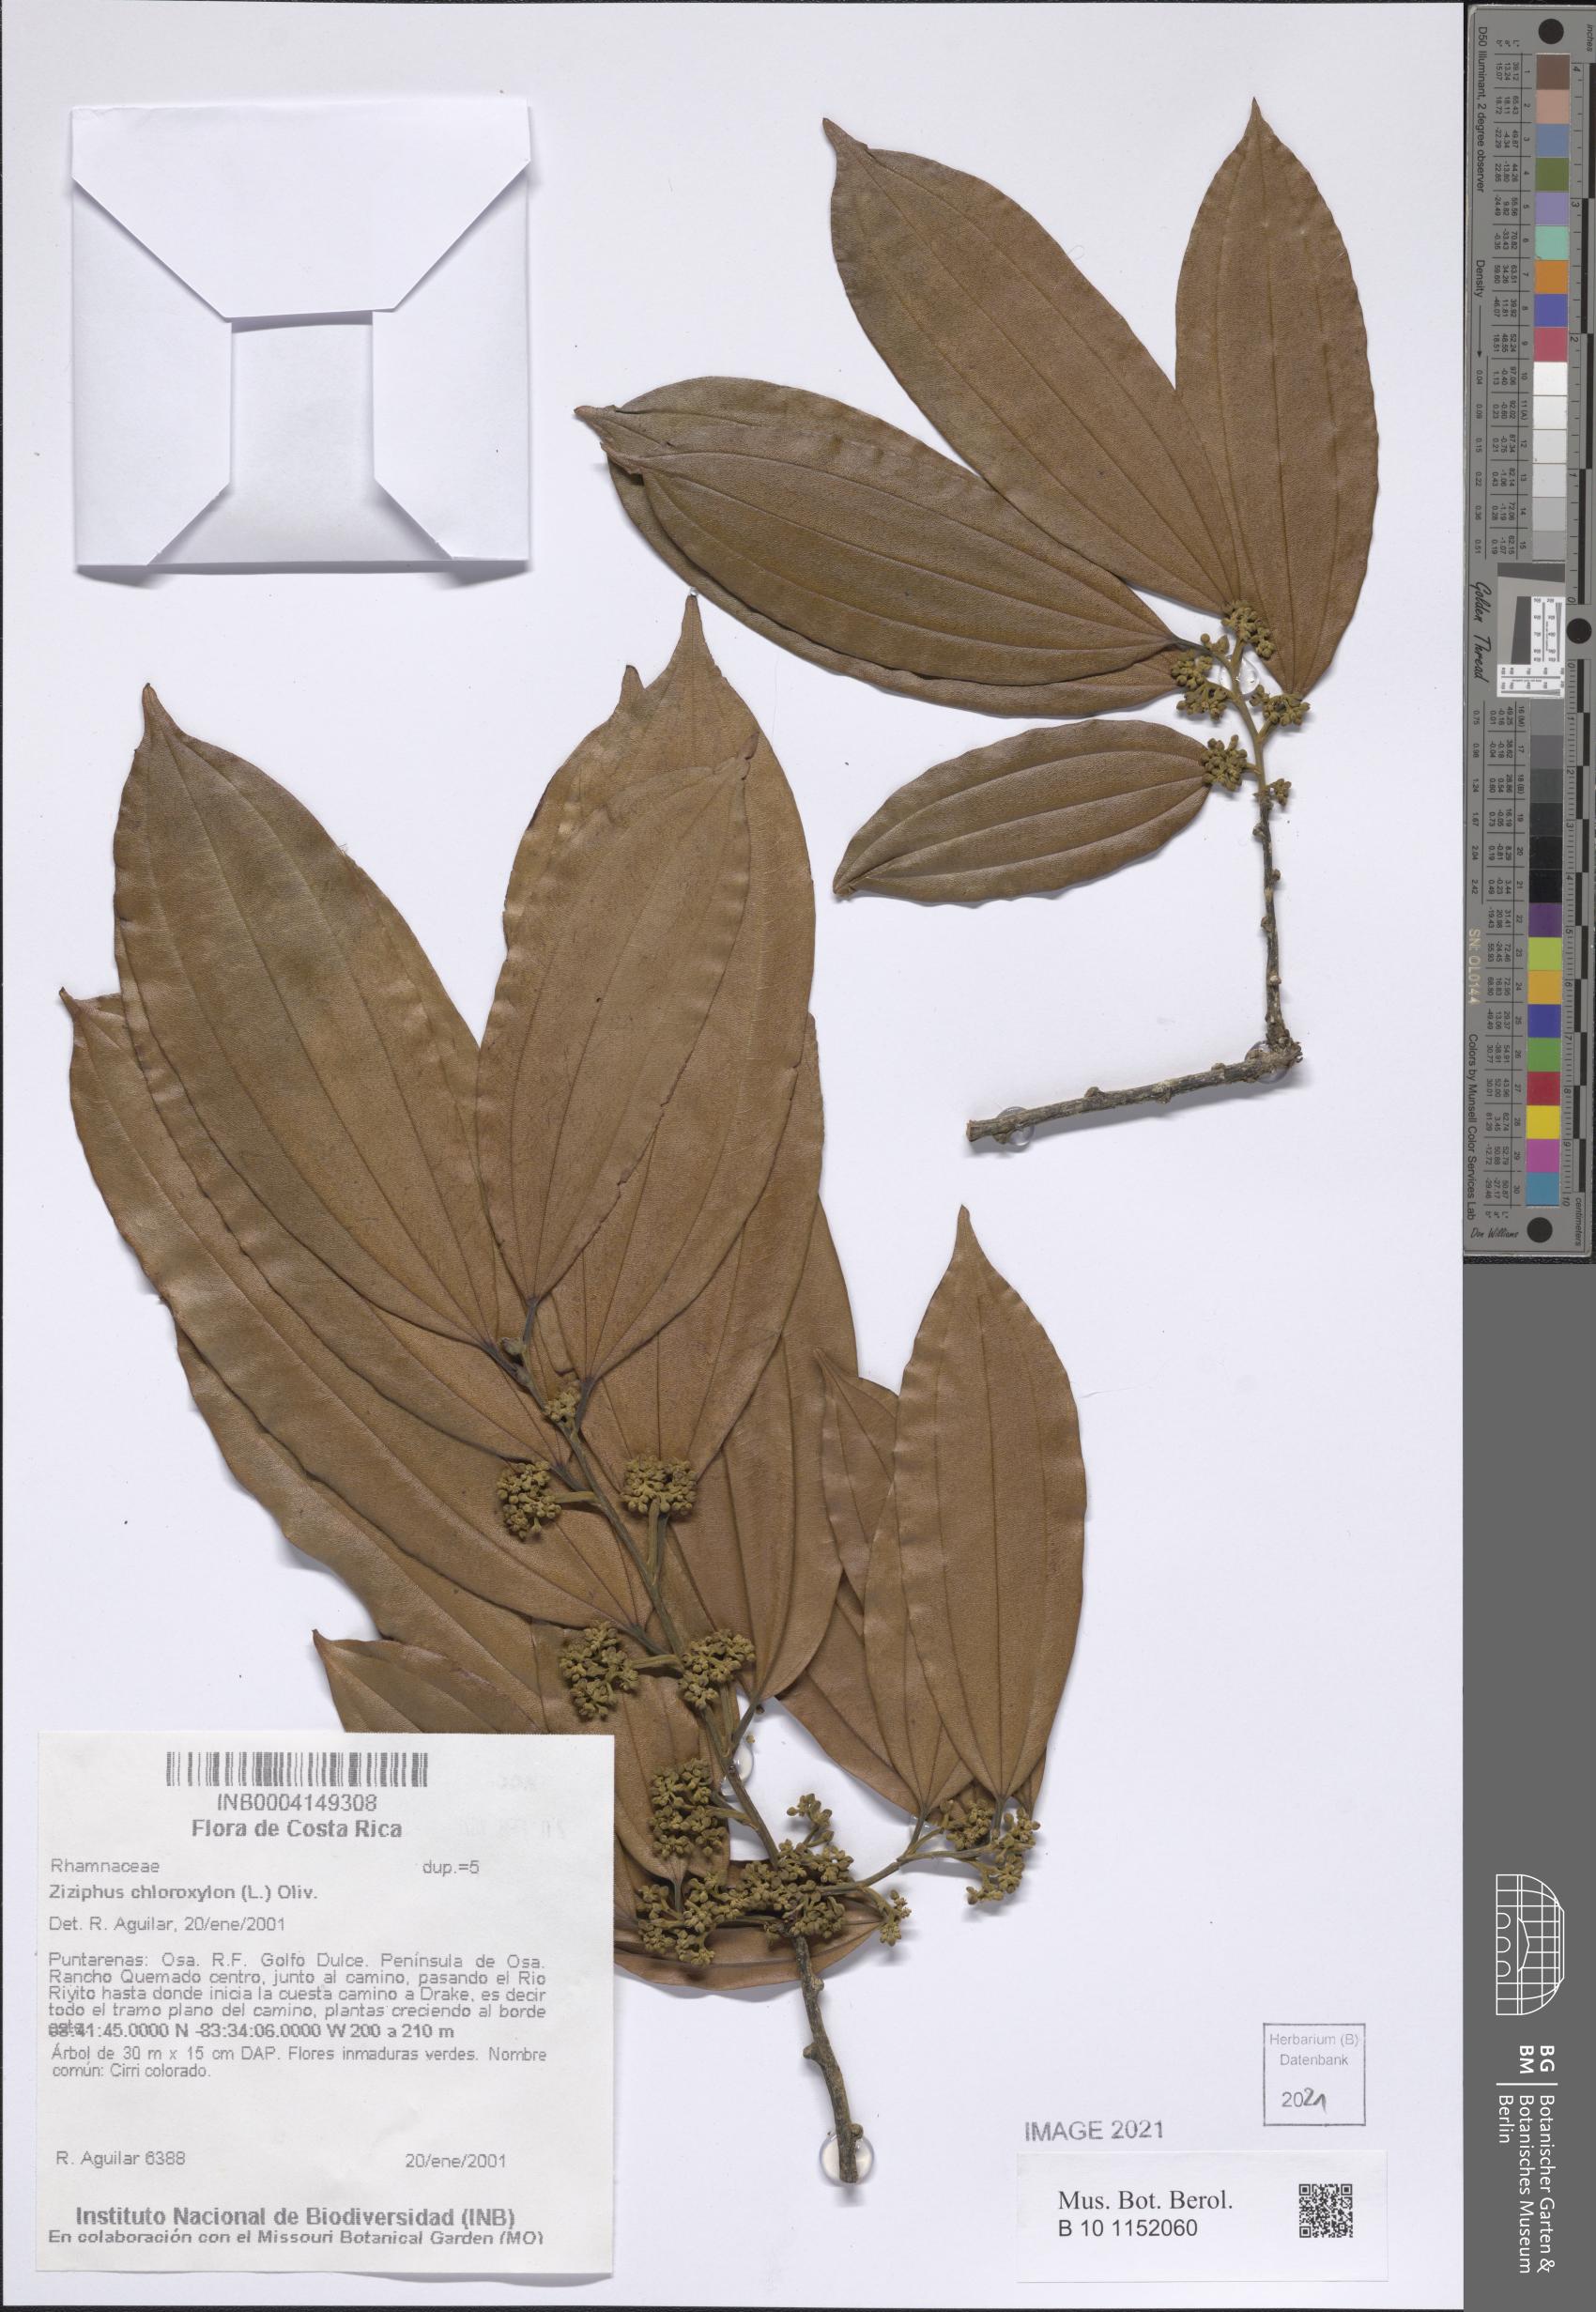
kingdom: Plantae
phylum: Tracheophyta
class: Magnoliopsida
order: Rosales
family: Rhamnaceae
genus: Sarcomphalus
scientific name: Sarcomphalus cinnamomum
